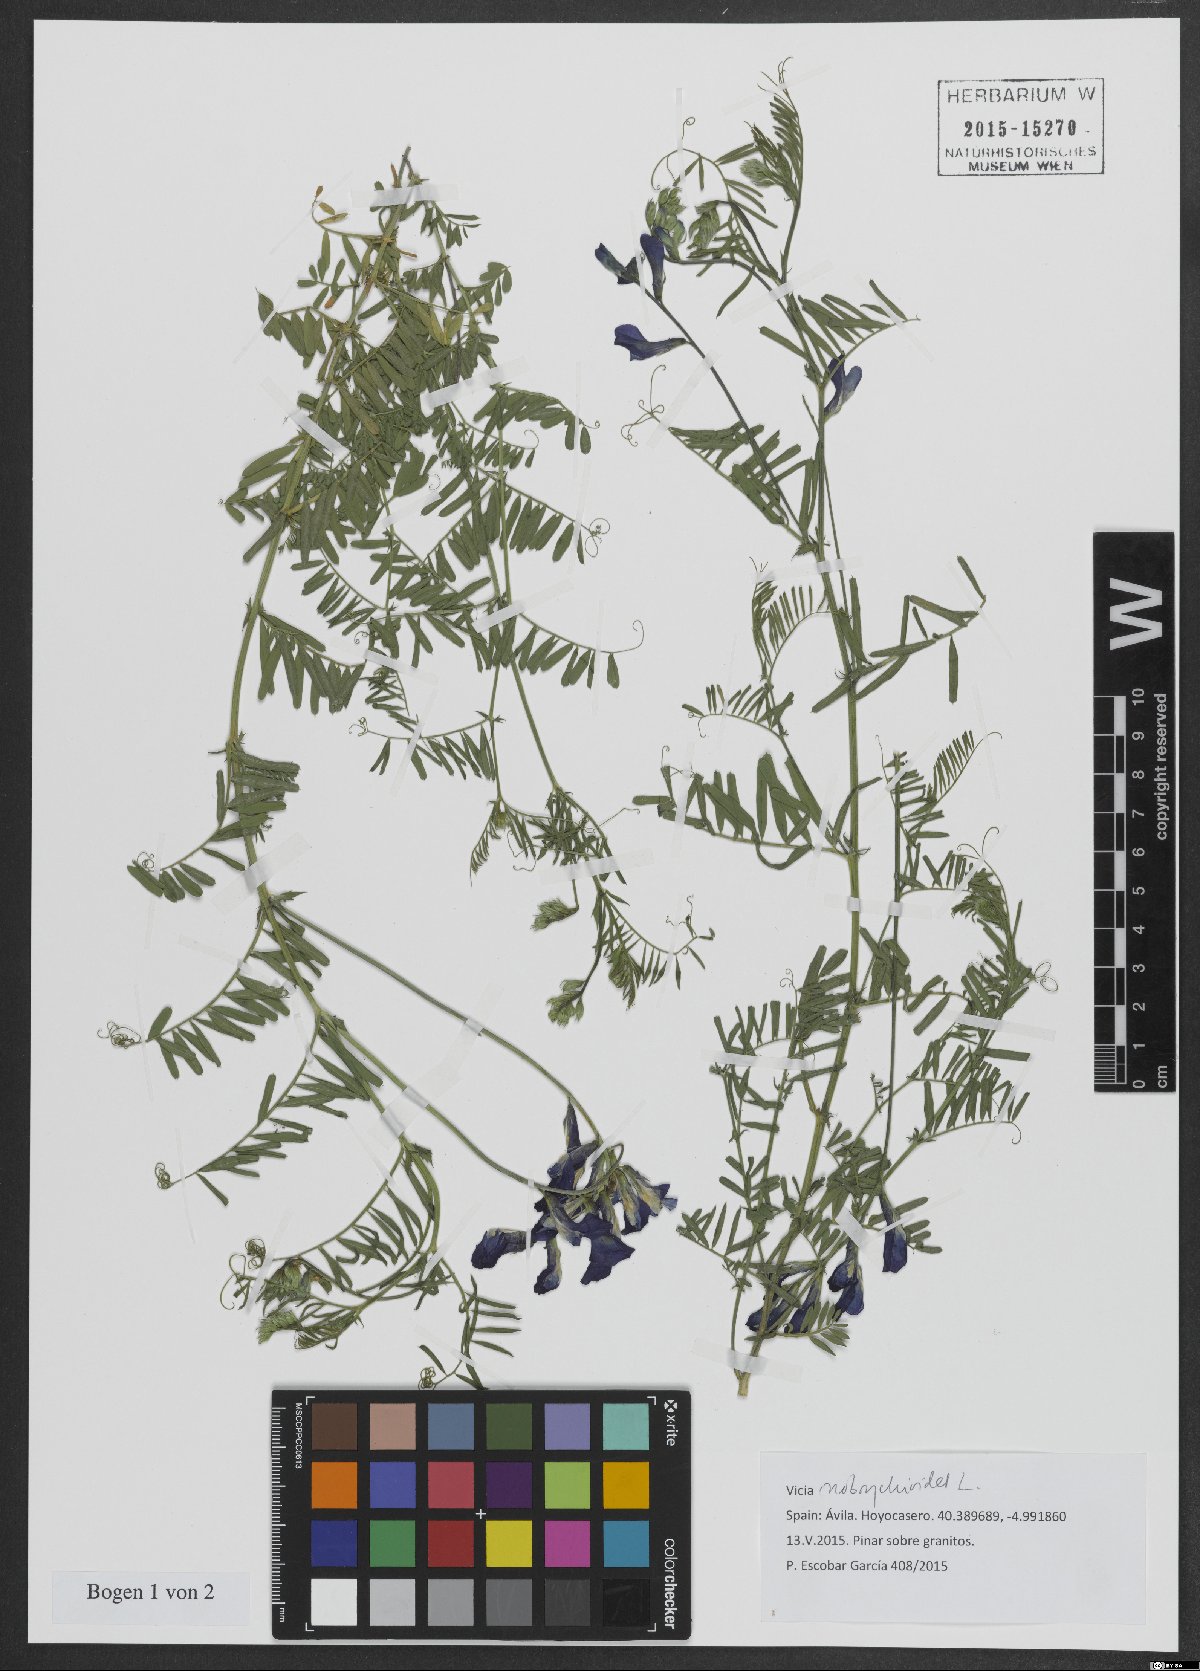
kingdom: Plantae
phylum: Tracheophyta
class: Magnoliopsida
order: Fabales
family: Fabaceae
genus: Vicia
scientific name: Vicia onobrychioides
